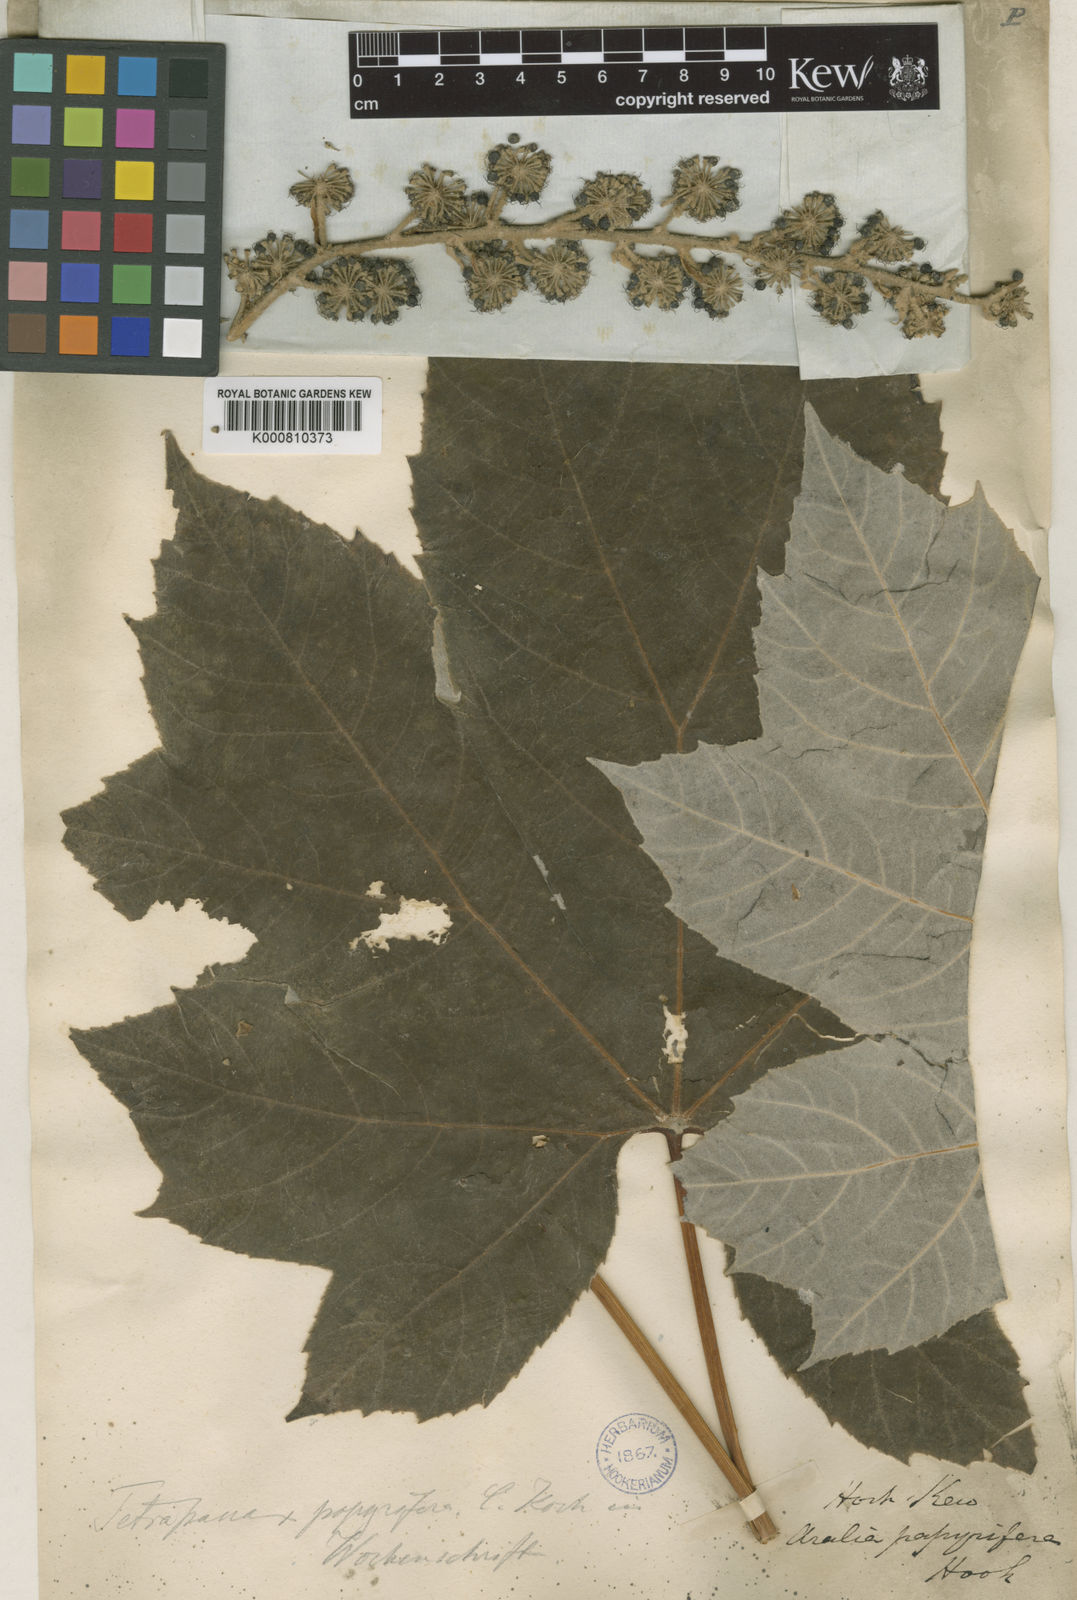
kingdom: Plantae
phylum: Tracheophyta
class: Magnoliopsida
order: Apiales
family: Araliaceae
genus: Tetrapanax
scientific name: Tetrapanax papyrifer
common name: Rice-paper plant
